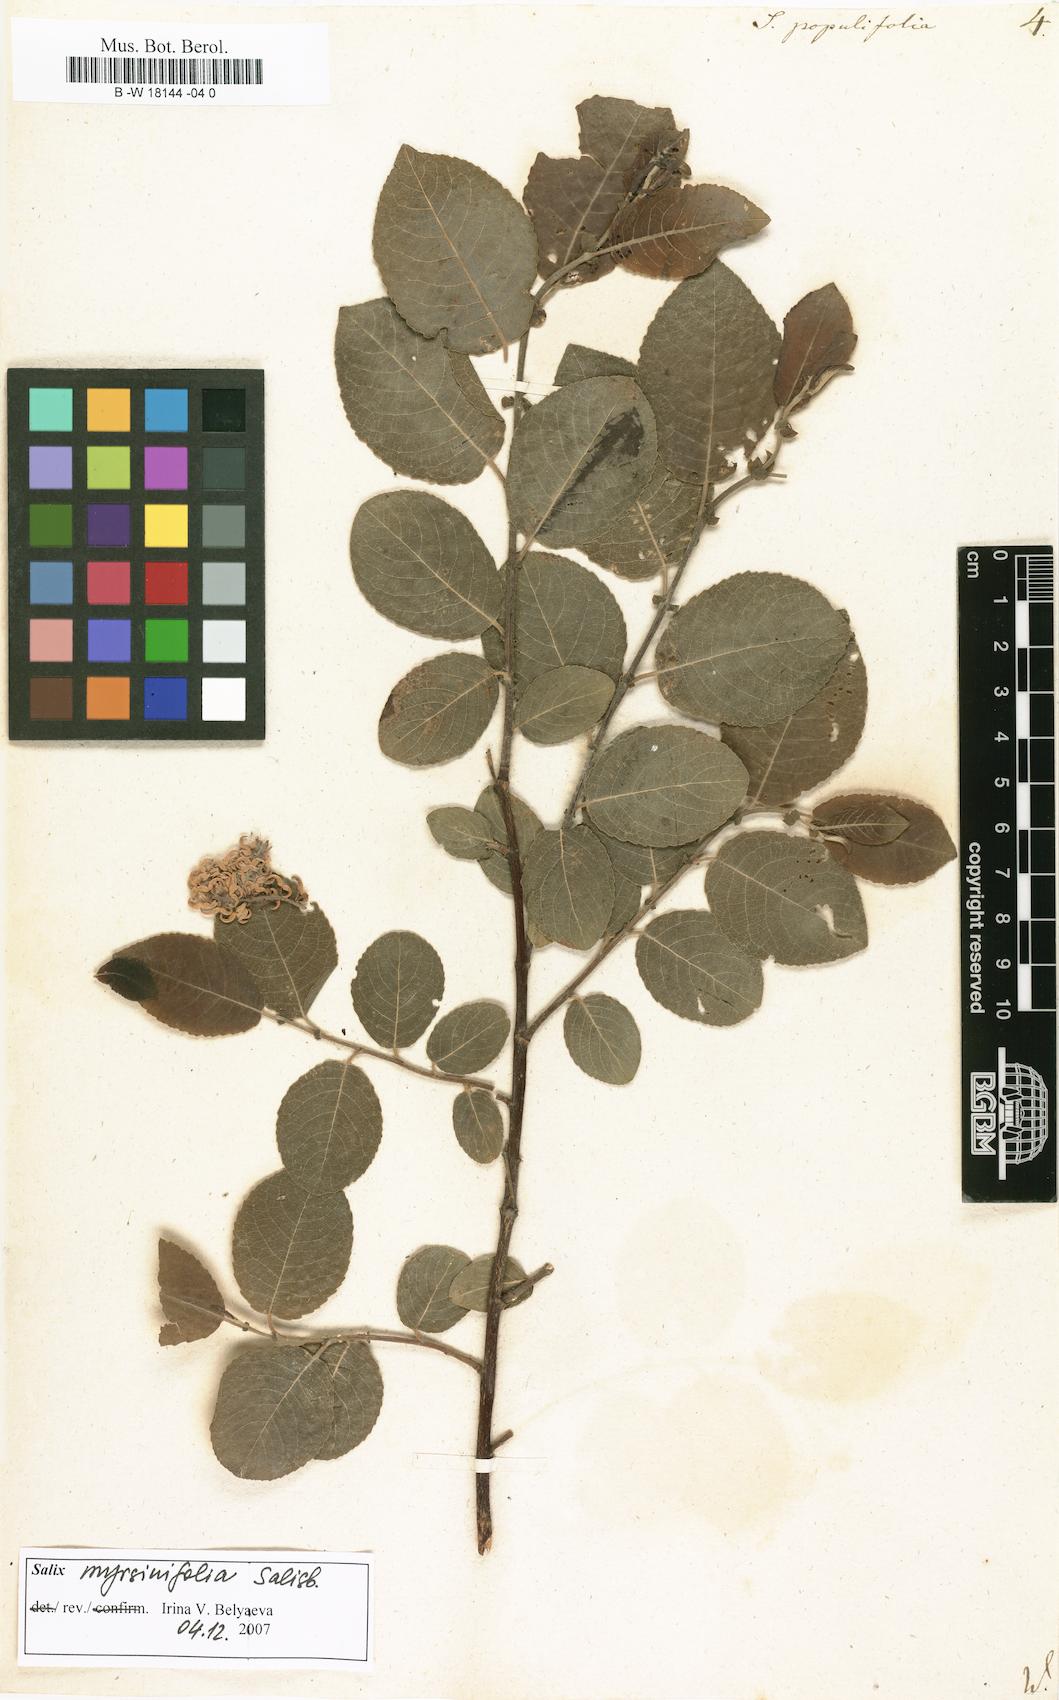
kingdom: Plantae
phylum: Tracheophyta
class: Magnoliopsida
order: Malpighiales
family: Salicaceae
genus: Salix
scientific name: Salix
